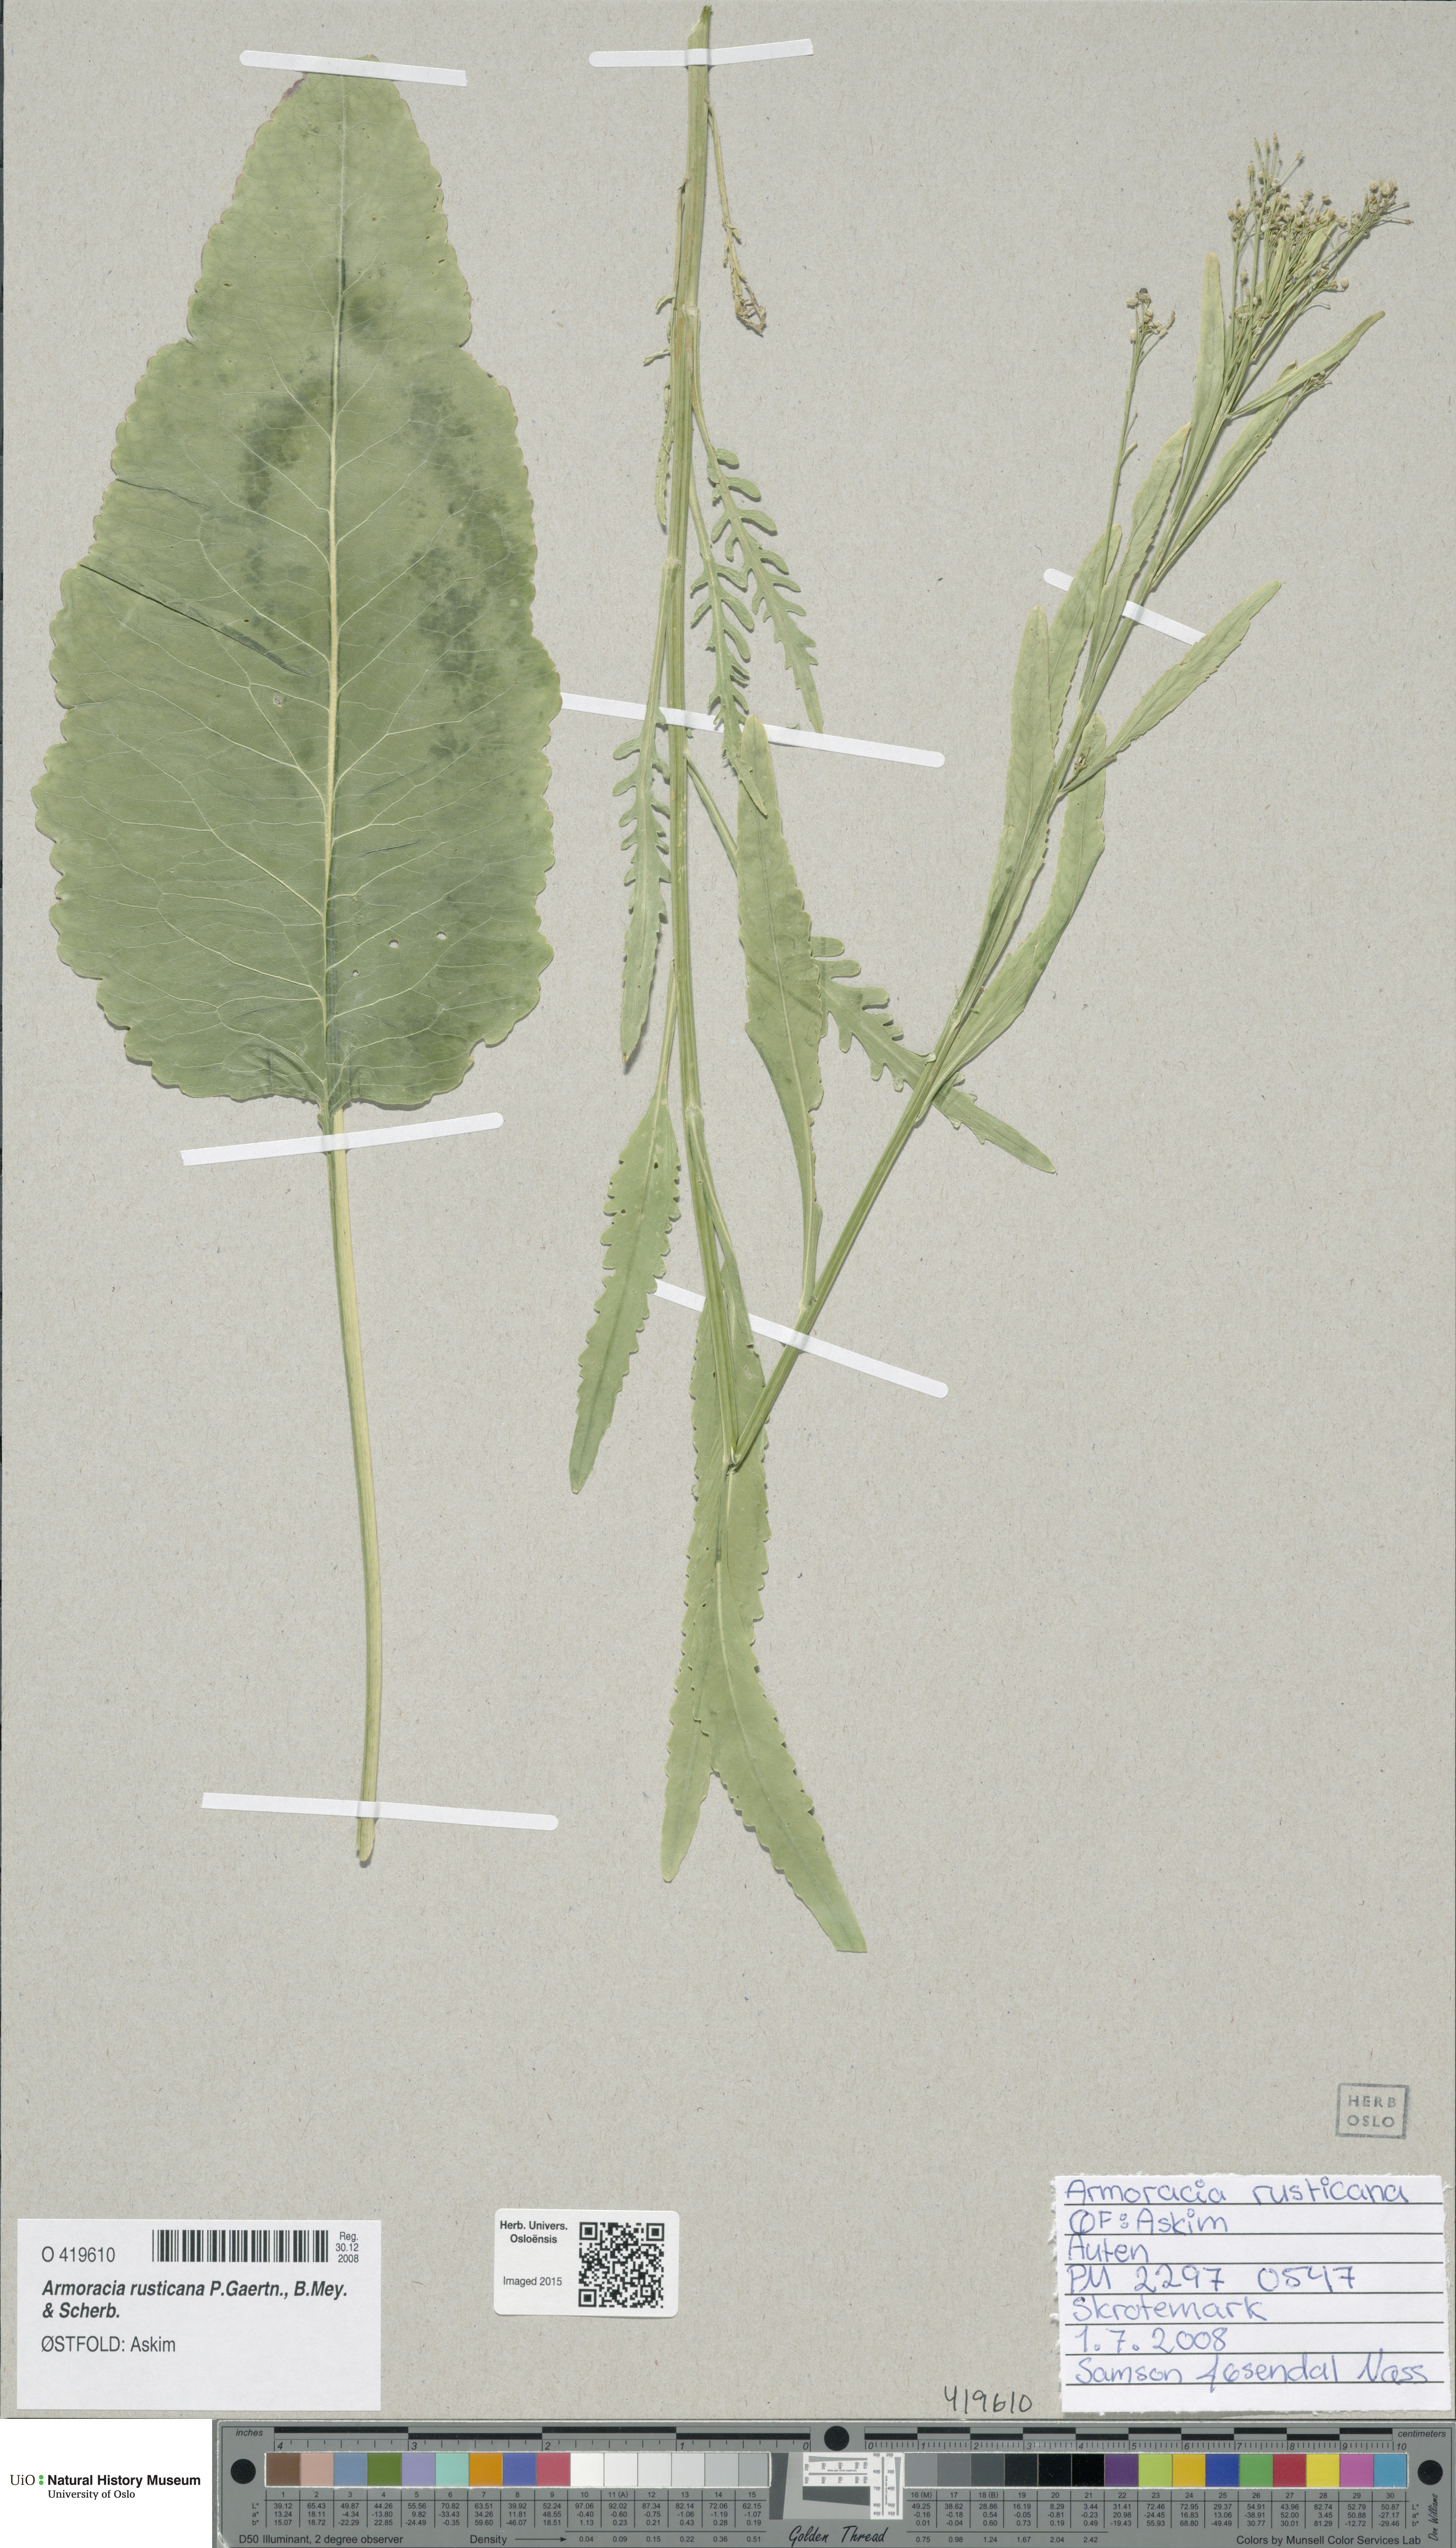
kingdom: Plantae
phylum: Tracheophyta
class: Magnoliopsida
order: Brassicales
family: Brassicaceae
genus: Armoracia
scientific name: Armoracia rusticana
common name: Horseradish
